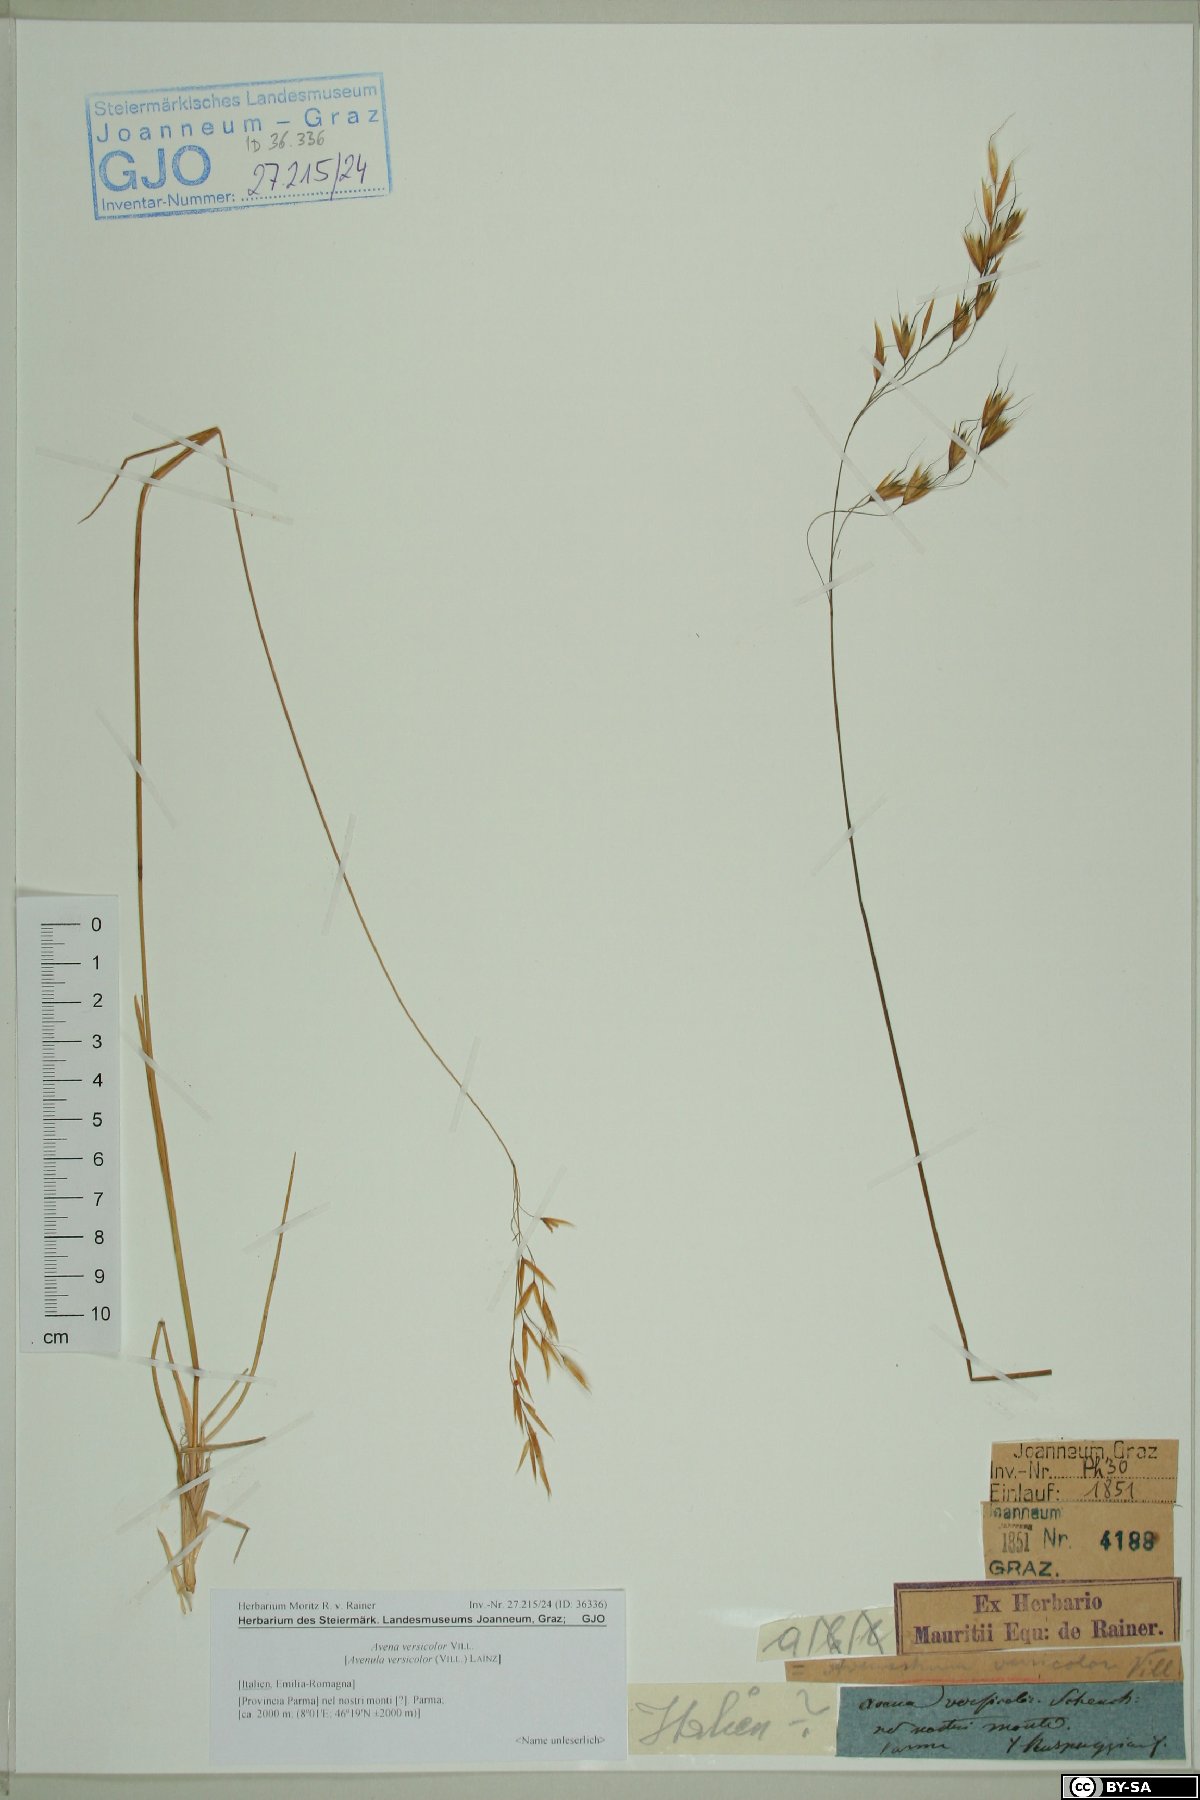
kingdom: Plantae
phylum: Tracheophyta
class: Liliopsida
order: Poales
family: Poaceae
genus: Helictochloa
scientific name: Helictochloa versicolor
